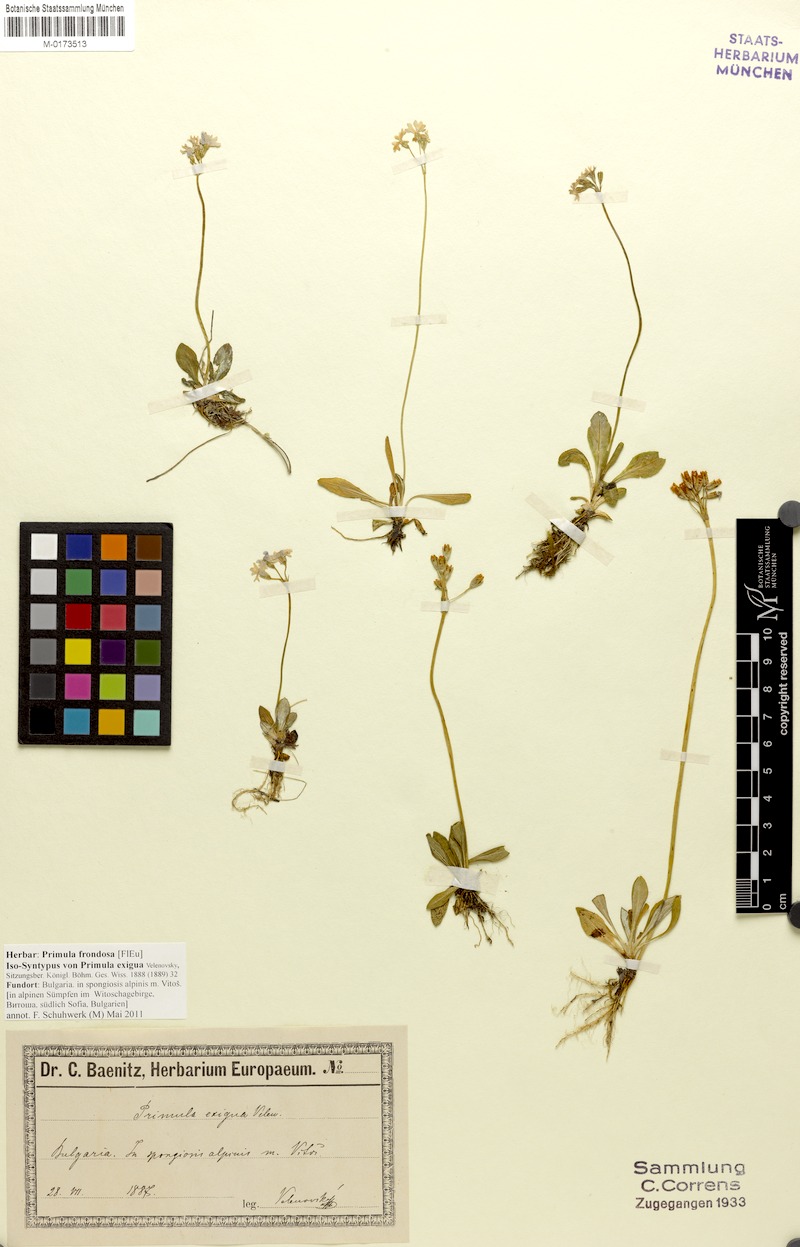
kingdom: Plantae
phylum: Tracheophyta
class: Magnoliopsida
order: Ericales
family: Primulaceae
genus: Primula
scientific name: Primula frondosa
